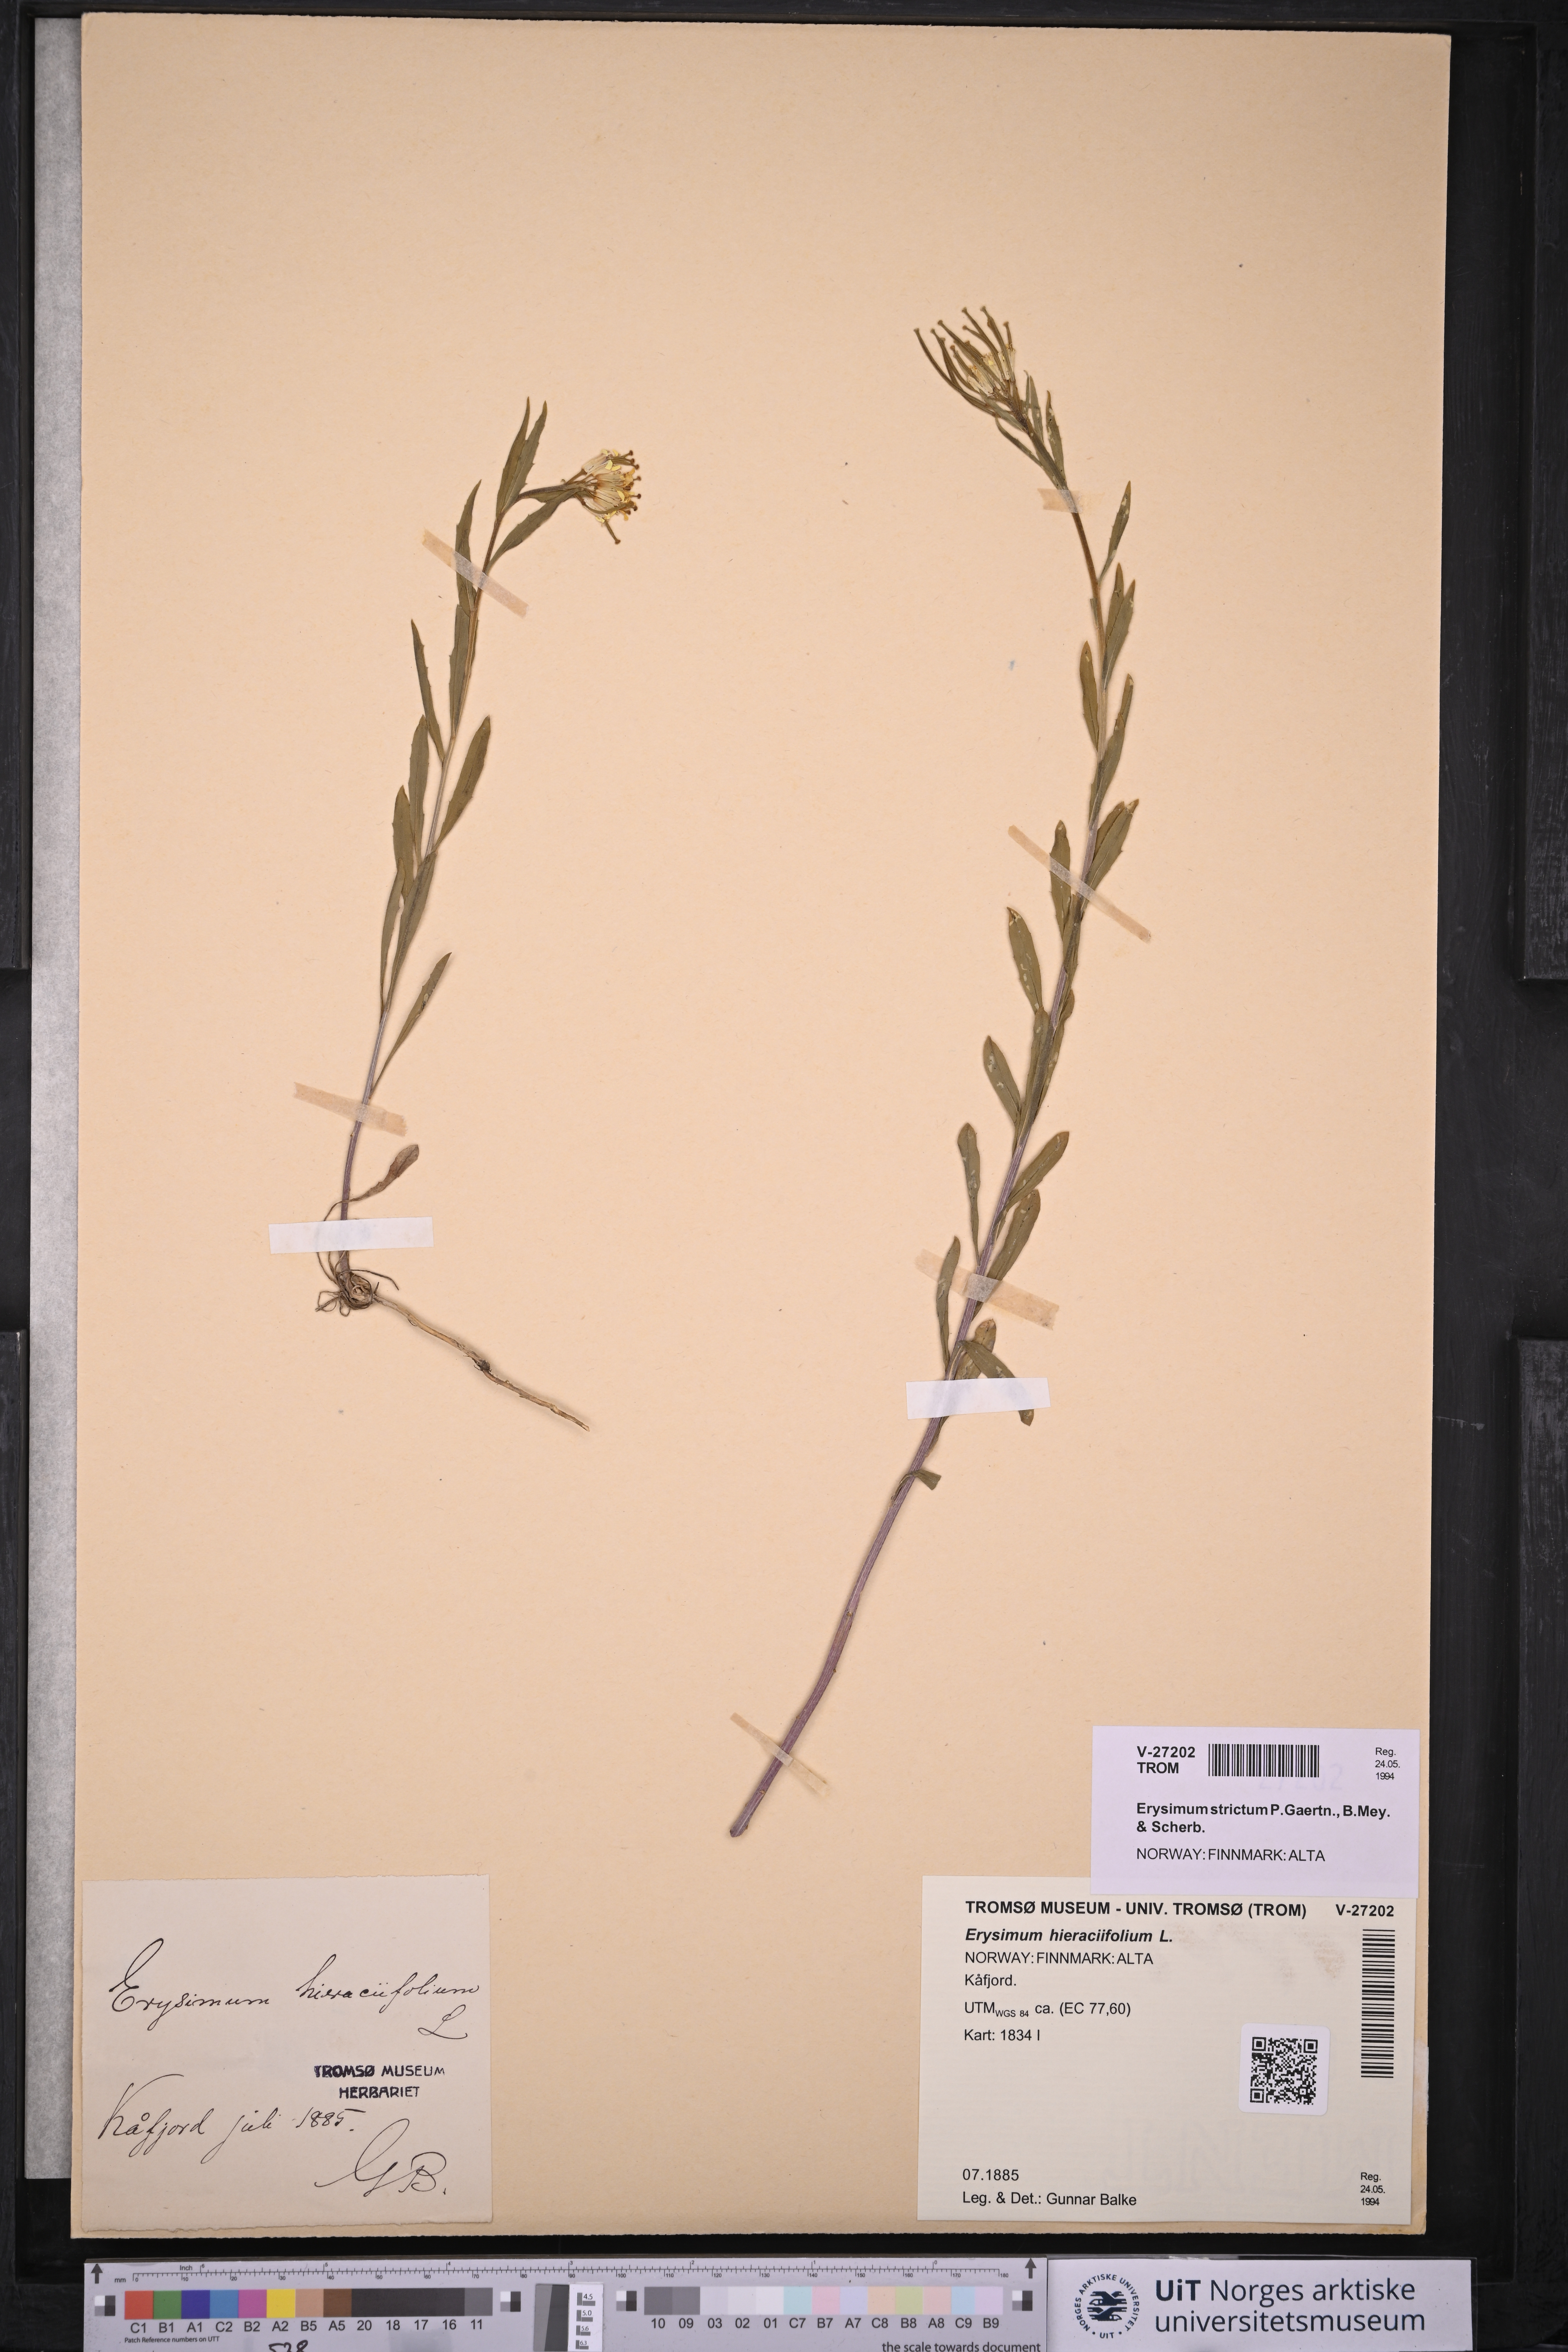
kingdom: Plantae
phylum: Tracheophyta
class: Magnoliopsida
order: Brassicales
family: Brassicaceae
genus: Erysimum
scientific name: Erysimum virgatum
